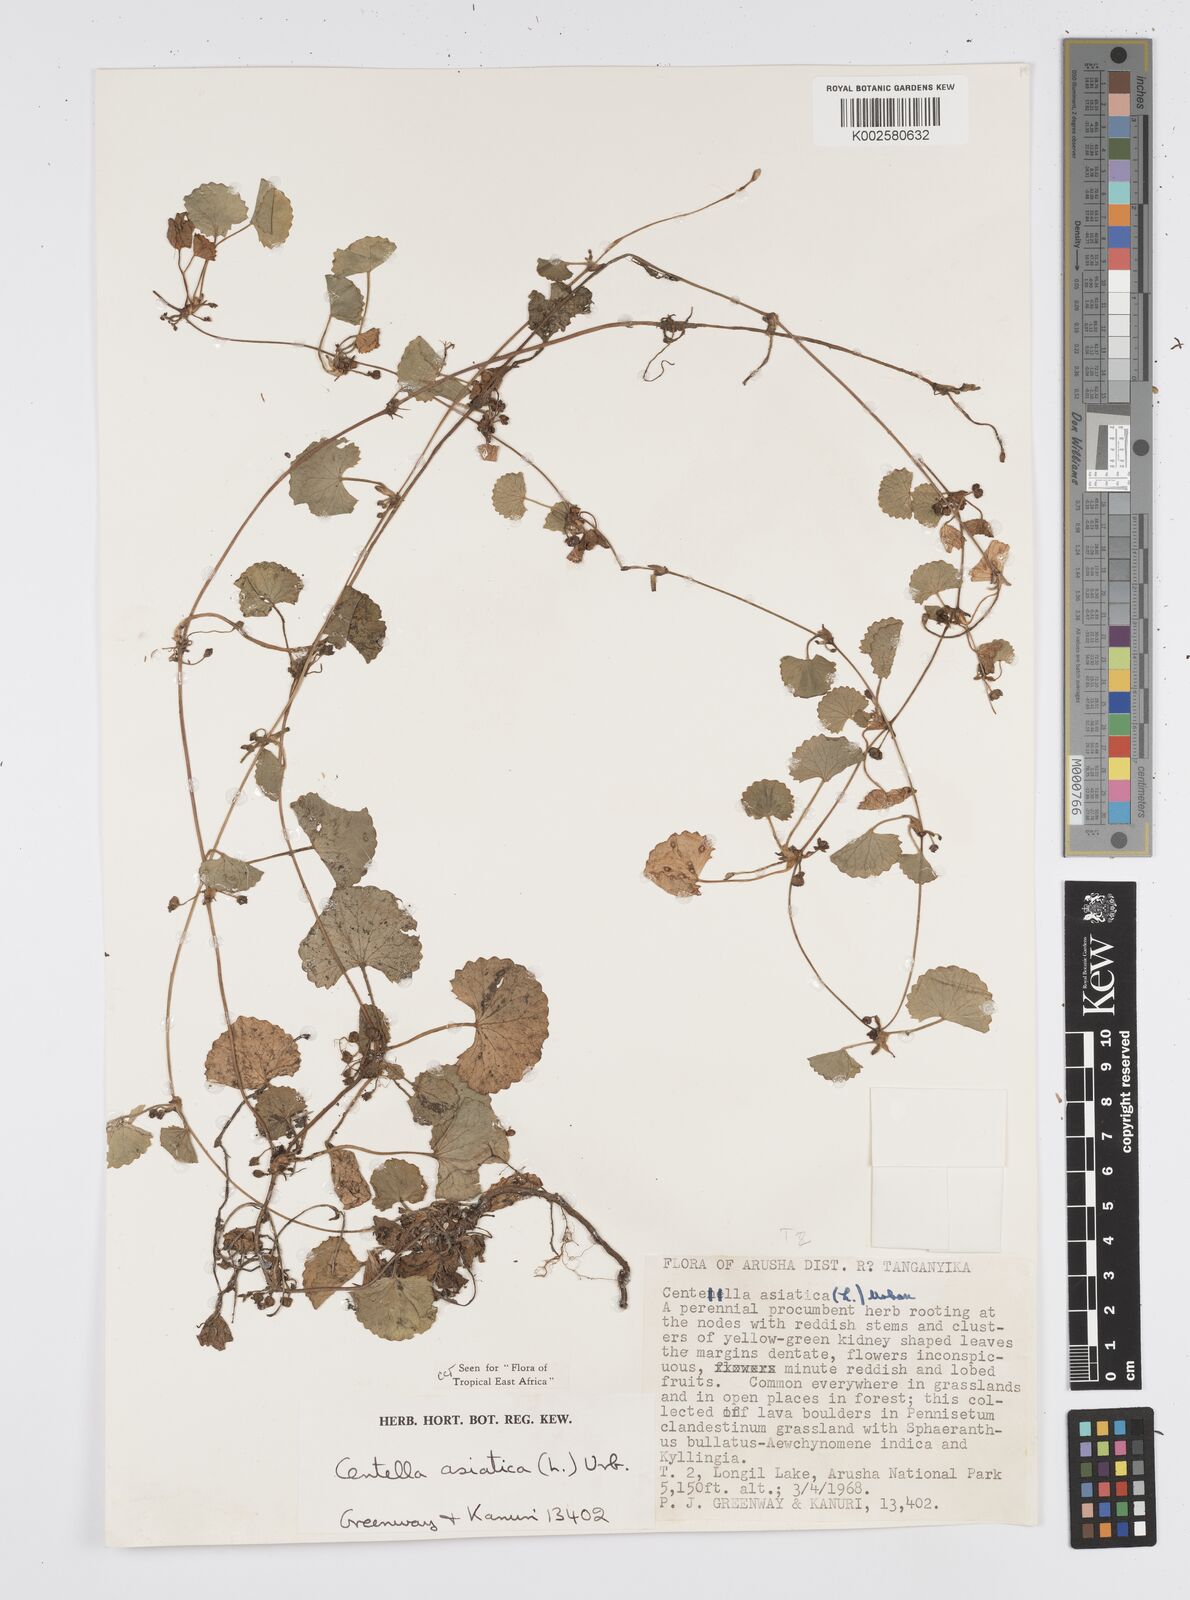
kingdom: Plantae
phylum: Tracheophyta
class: Magnoliopsida
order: Apiales
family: Apiaceae
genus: Centella
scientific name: Centella asiatica
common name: Spadeleaf
